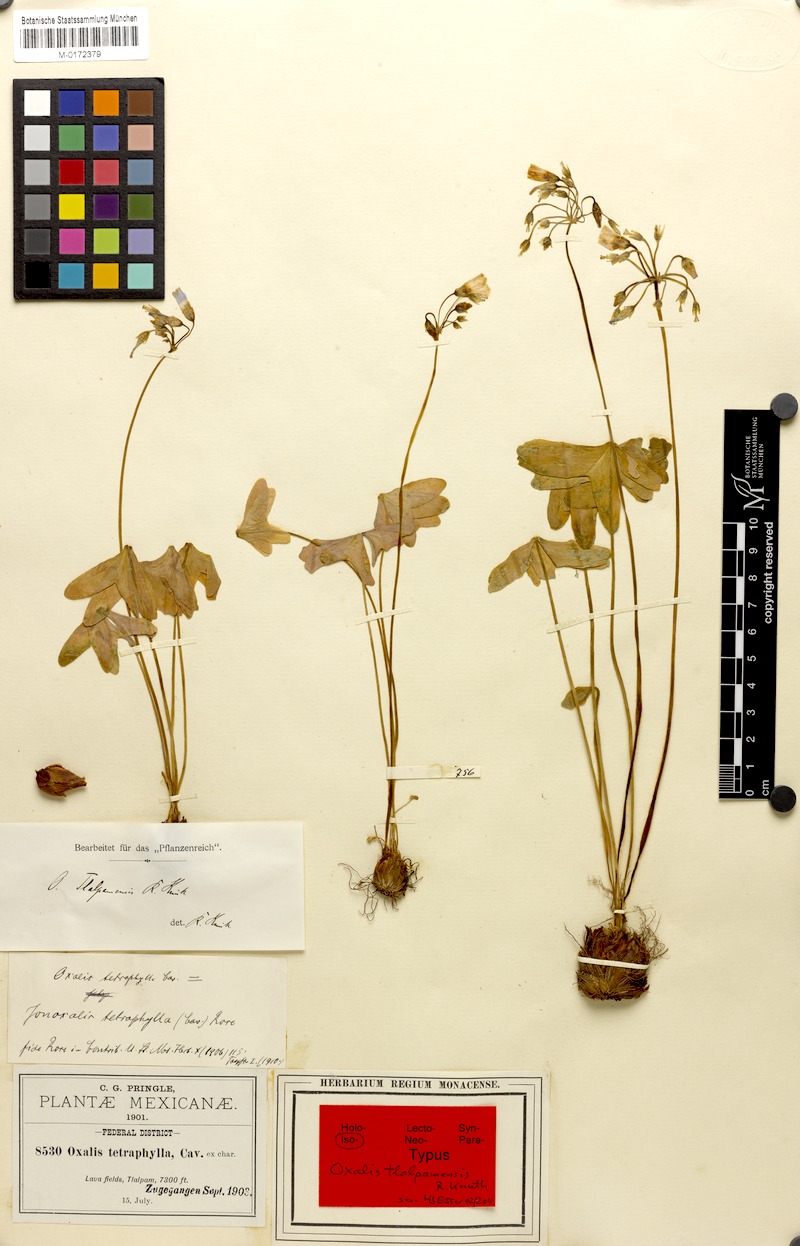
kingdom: Plantae
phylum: Tracheophyta
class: Magnoliopsida
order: Oxalidales
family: Oxalidaceae
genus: Oxalis
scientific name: Oxalis tetraphylla
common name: Four-leaved pink-sorrel
